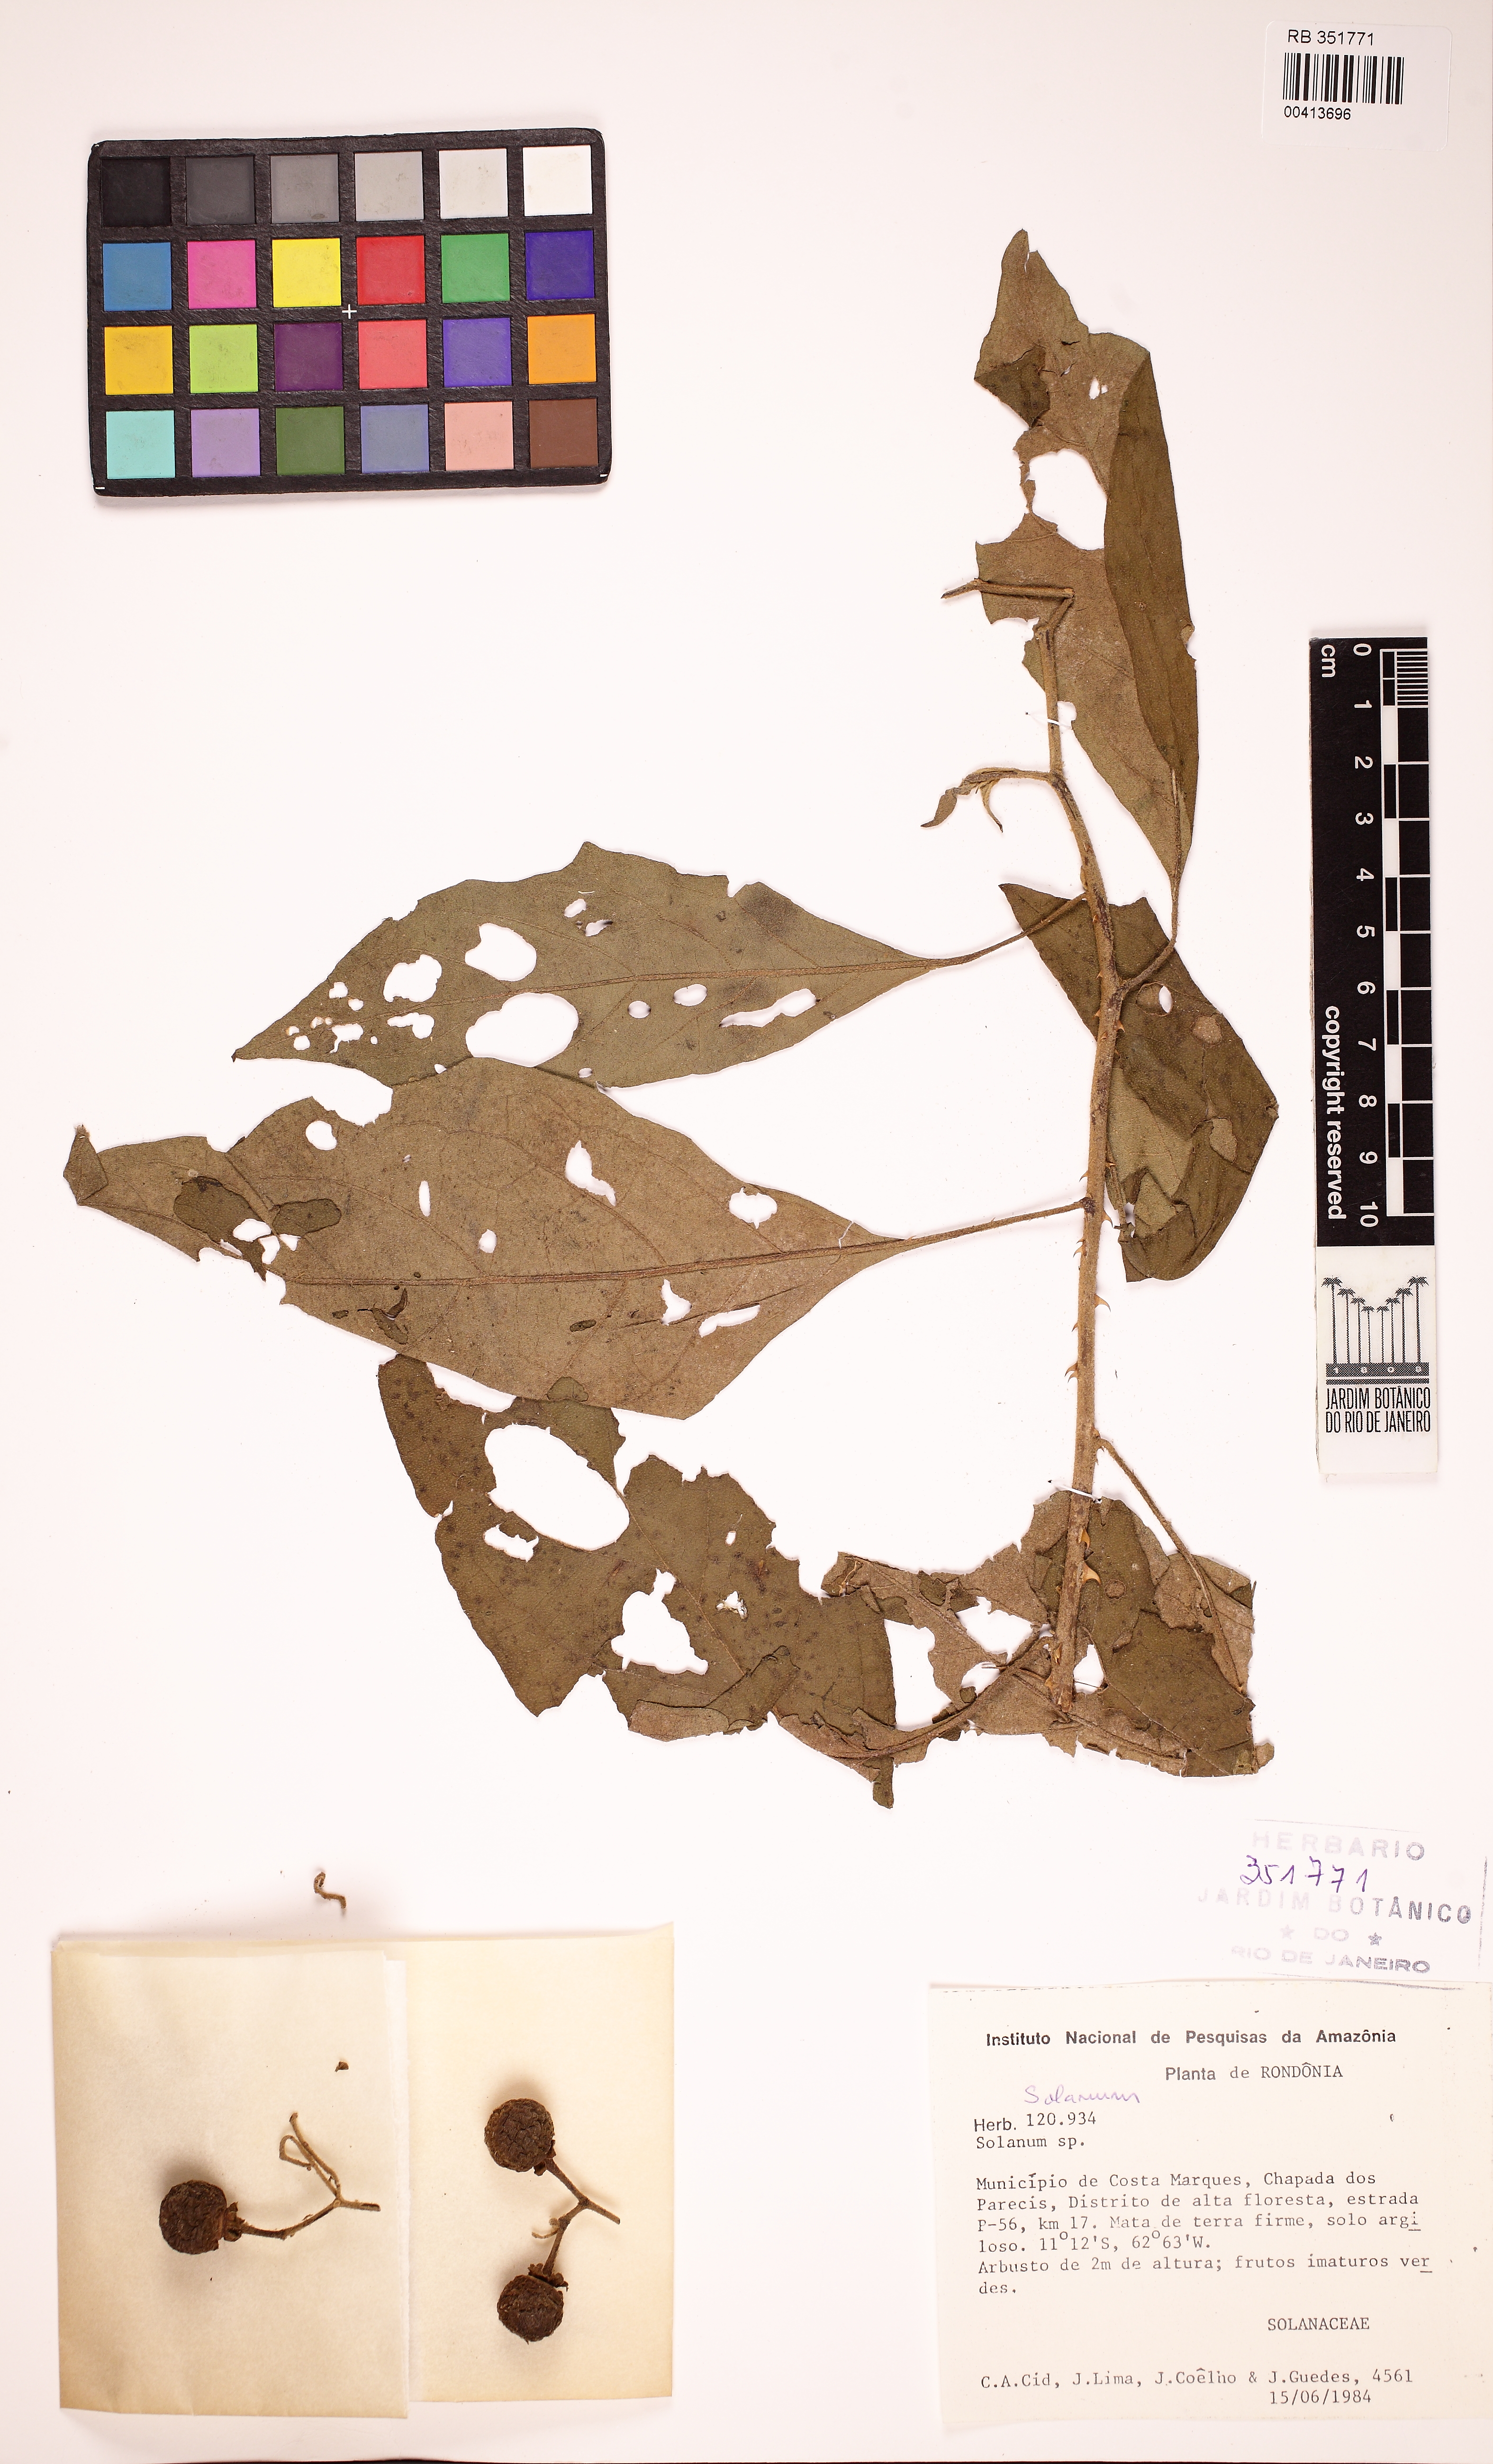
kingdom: Plantae
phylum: Tracheophyta
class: Magnoliopsida
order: Solanales
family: Solanaceae
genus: Solanum
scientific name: Solanum monachophyllum
